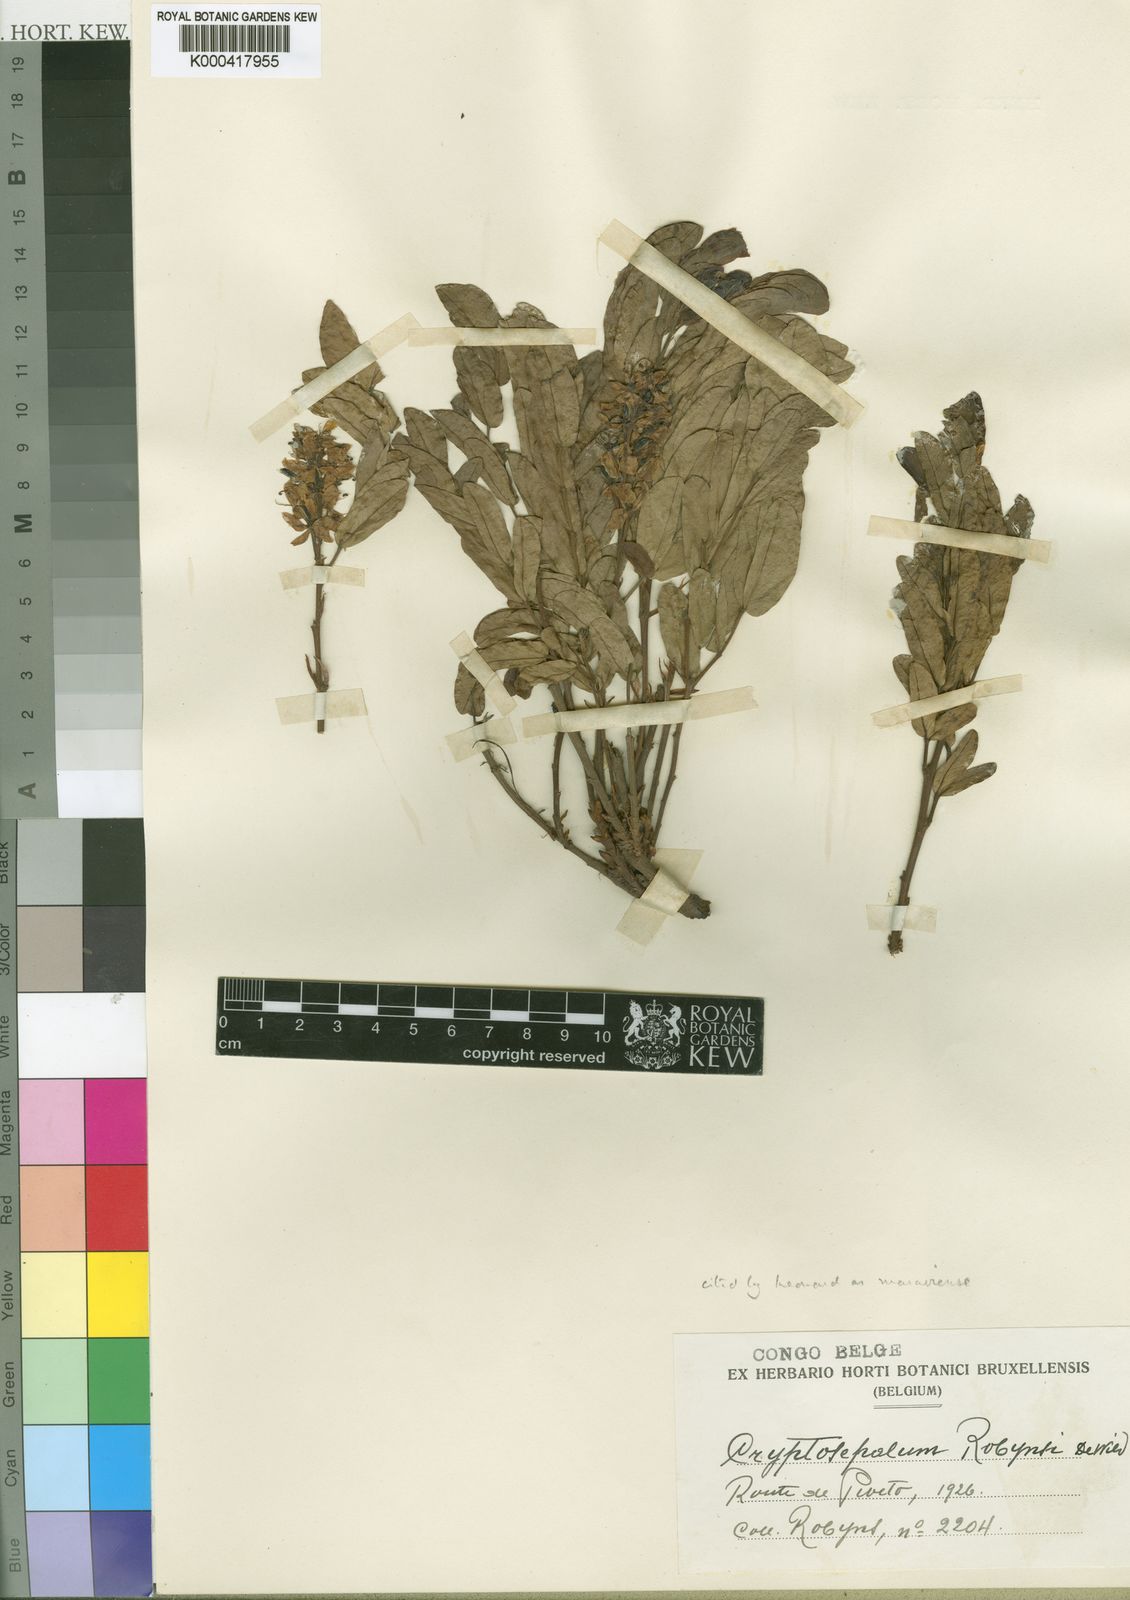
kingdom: Plantae
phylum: Tracheophyta
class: Magnoliopsida
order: Fabales
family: Fabaceae
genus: Cryptosepalum
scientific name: Cryptosepalum maraviense
